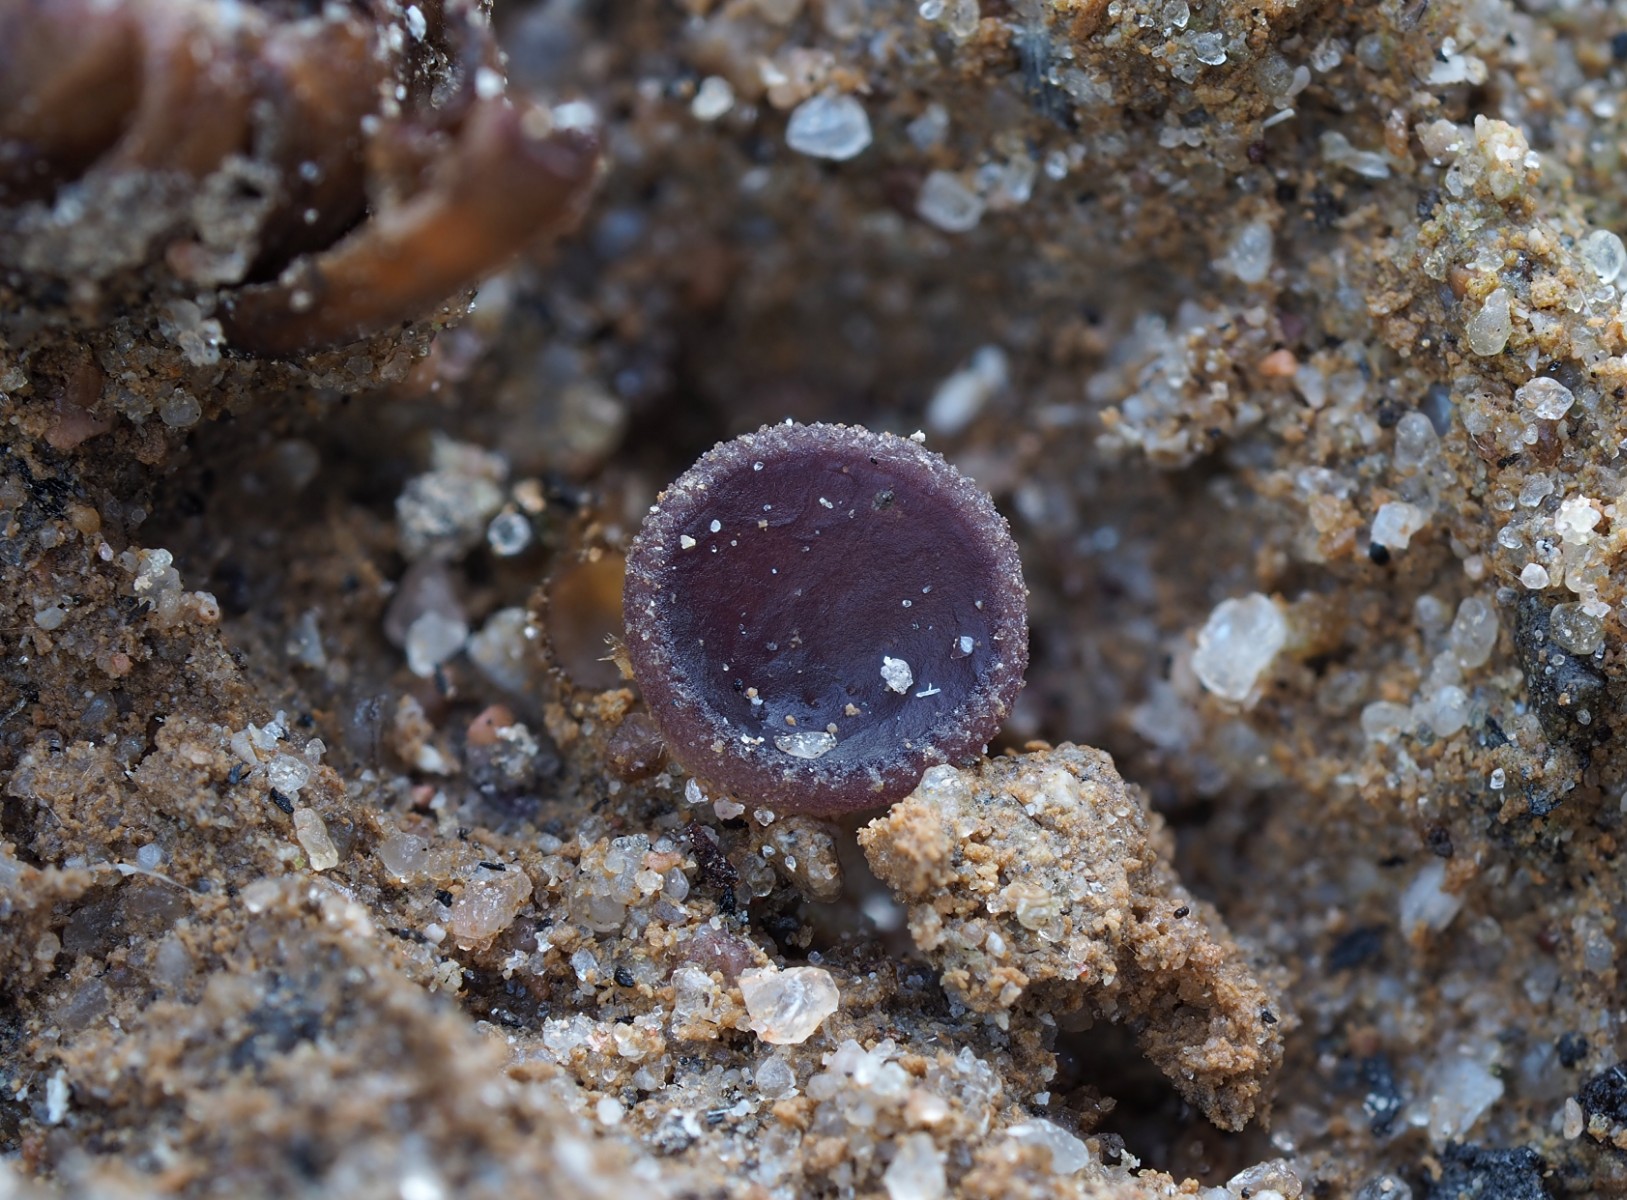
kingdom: Fungi
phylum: Ascomycota
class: Pezizomycetes
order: Pezizales
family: Pezizaceae
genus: Geoscypha
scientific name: Geoscypha tenacella
